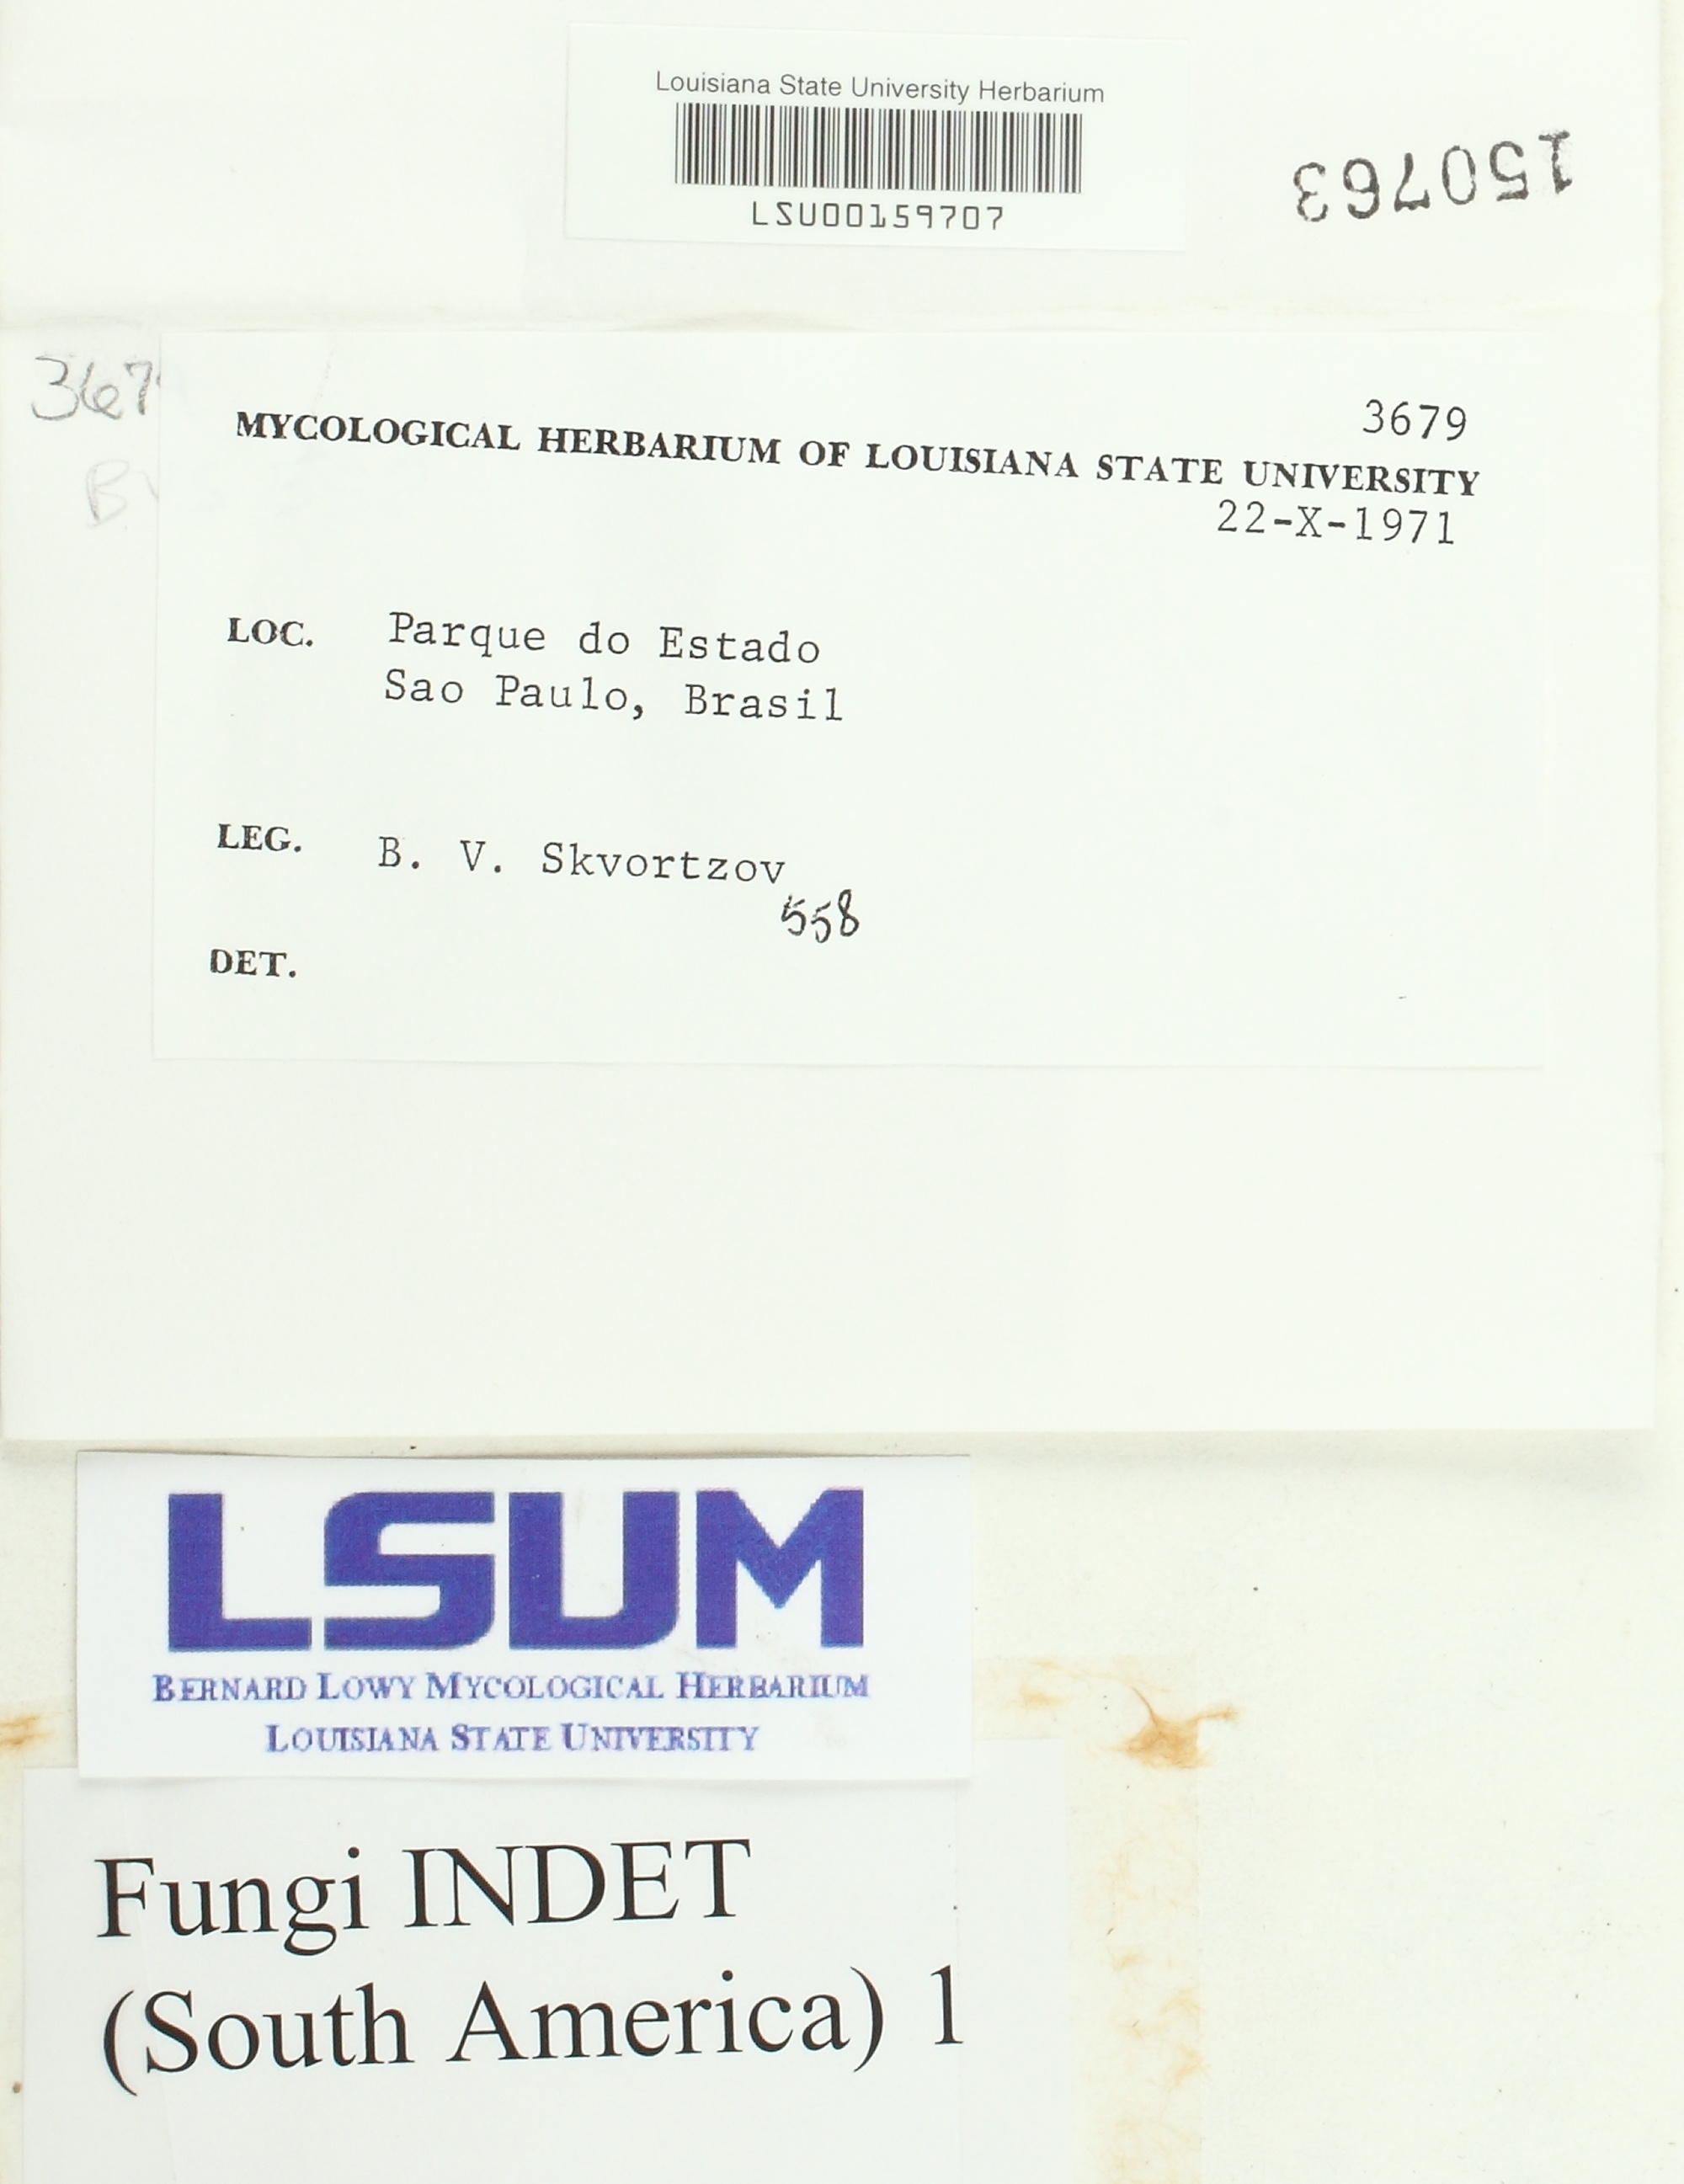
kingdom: Fungi
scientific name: Fungi
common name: Fungi
